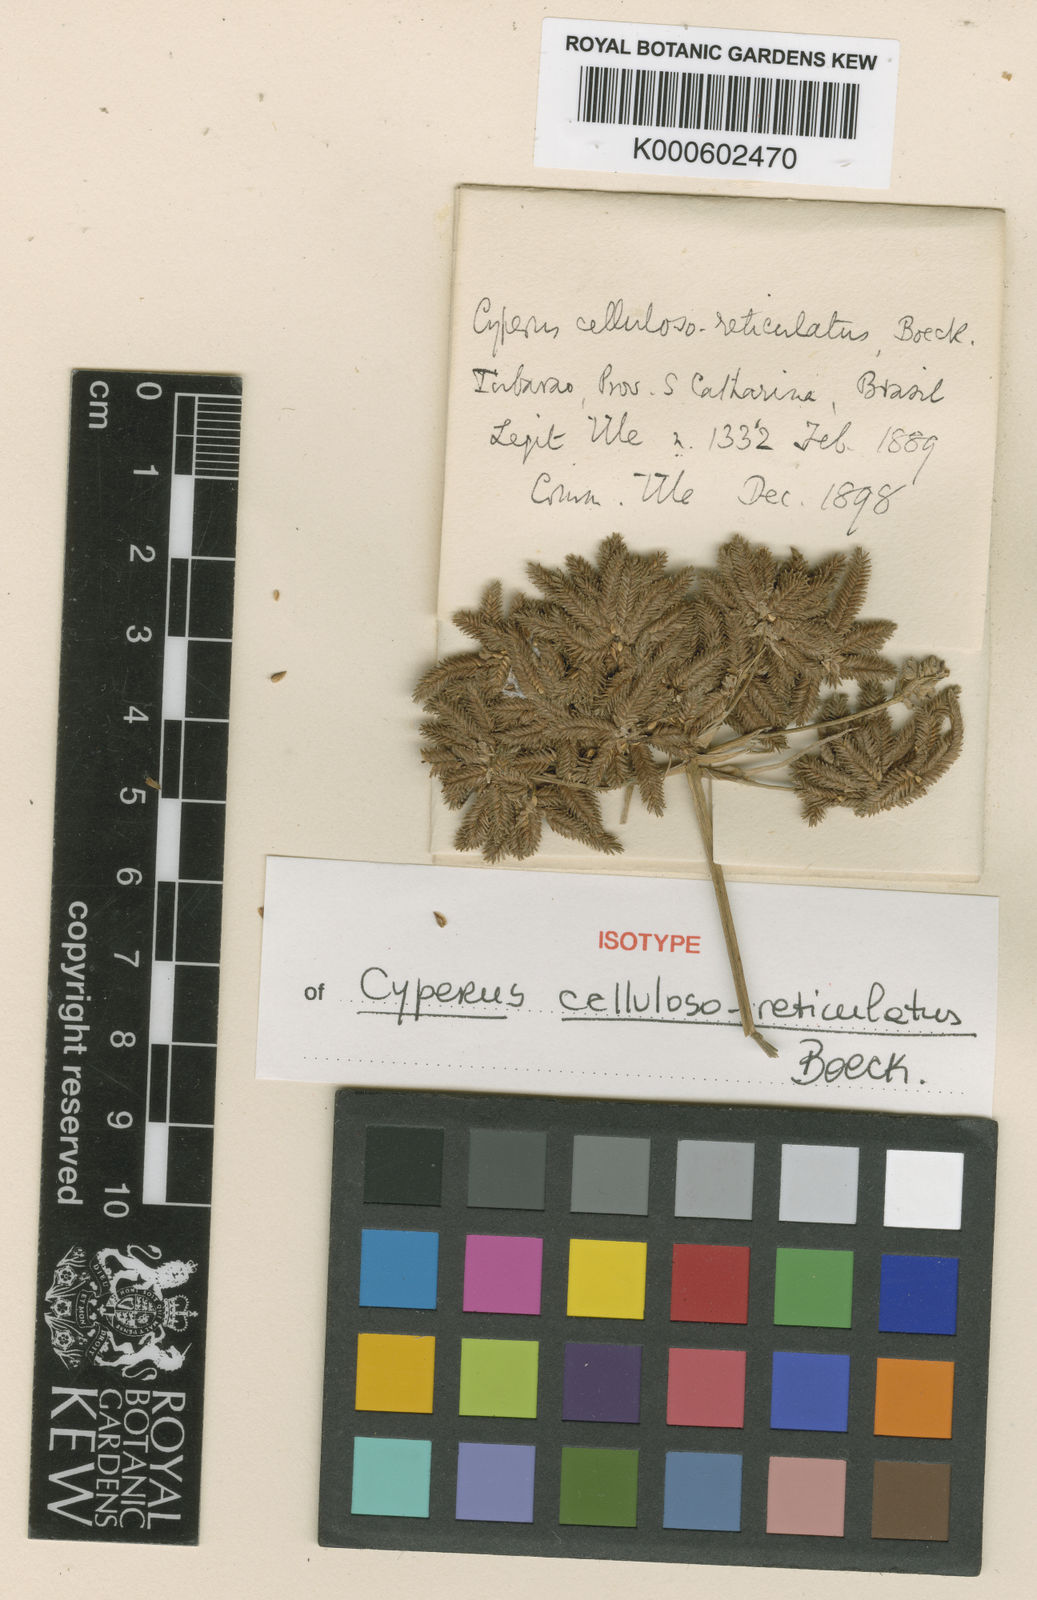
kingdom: Plantae
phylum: Tracheophyta
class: Liliopsida
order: Poales
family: Cyperaceae
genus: Cyperus
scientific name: Cyperus cellulosoreticulatus
